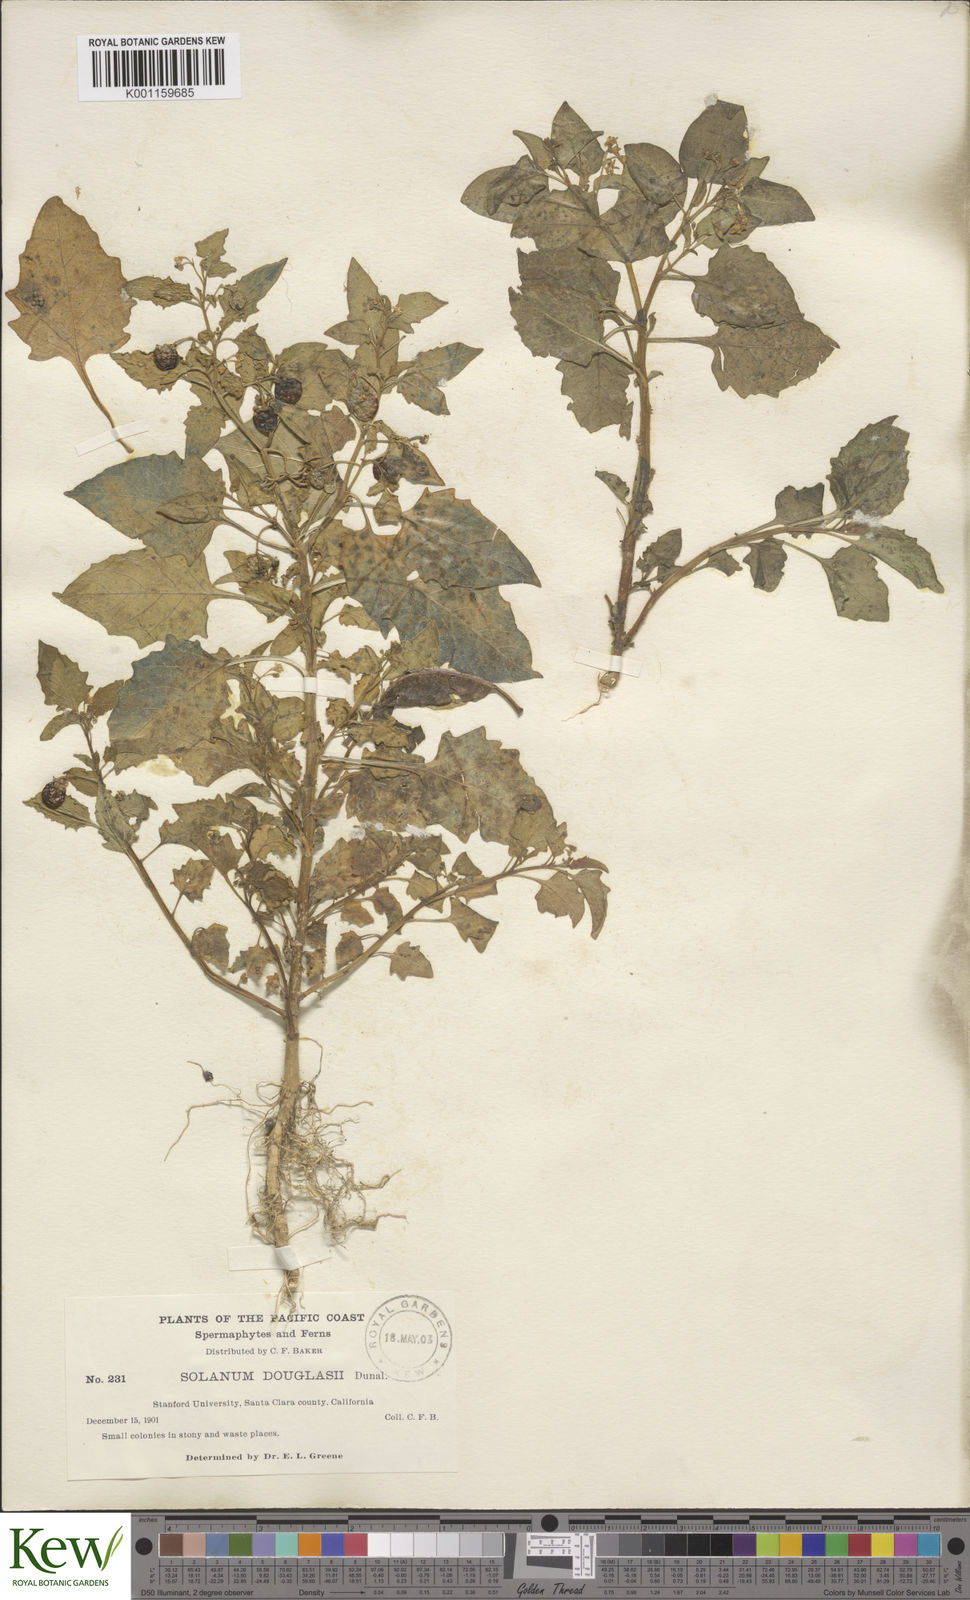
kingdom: Plantae
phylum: Tracheophyta
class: Magnoliopsida
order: Solanales
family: Solanaceae
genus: Solanum
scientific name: Solanum americanum
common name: American black nightshade
